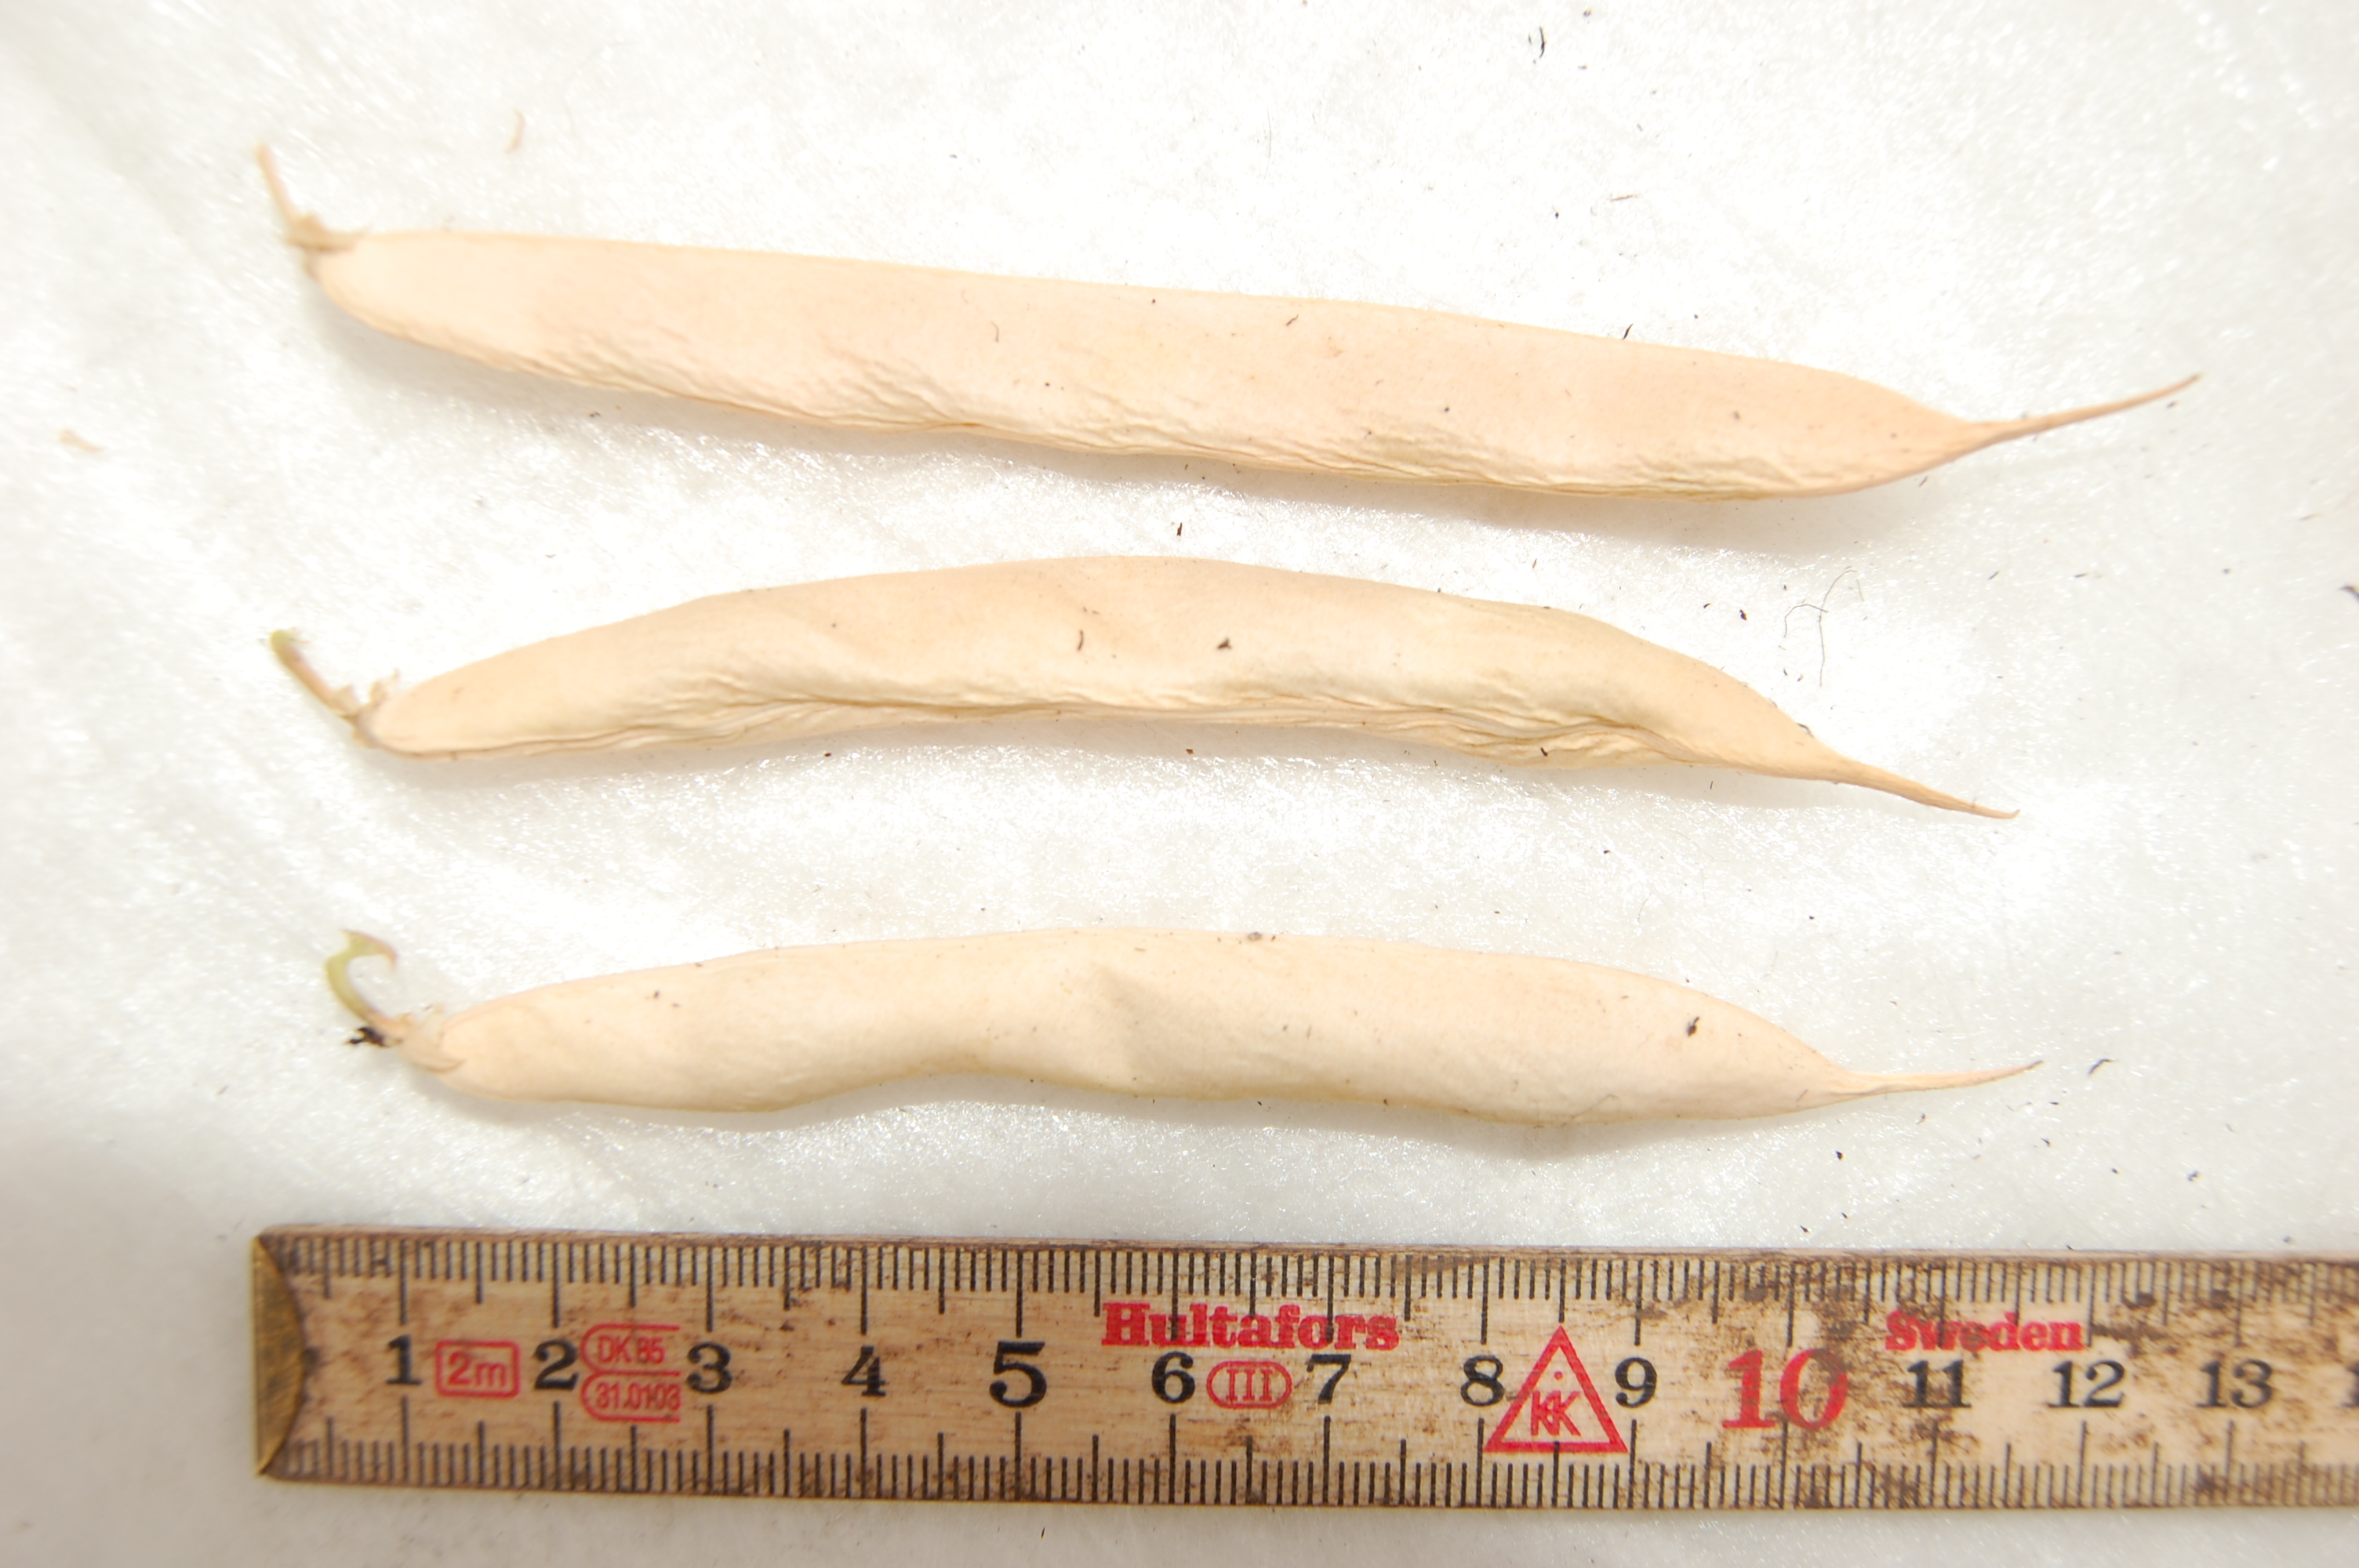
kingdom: Plantae
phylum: Tracheophyta
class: Magnoliopsida
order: Fabales
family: Fabaceae
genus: Phaseolus
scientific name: Phaseolus vulgaris
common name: Bean
